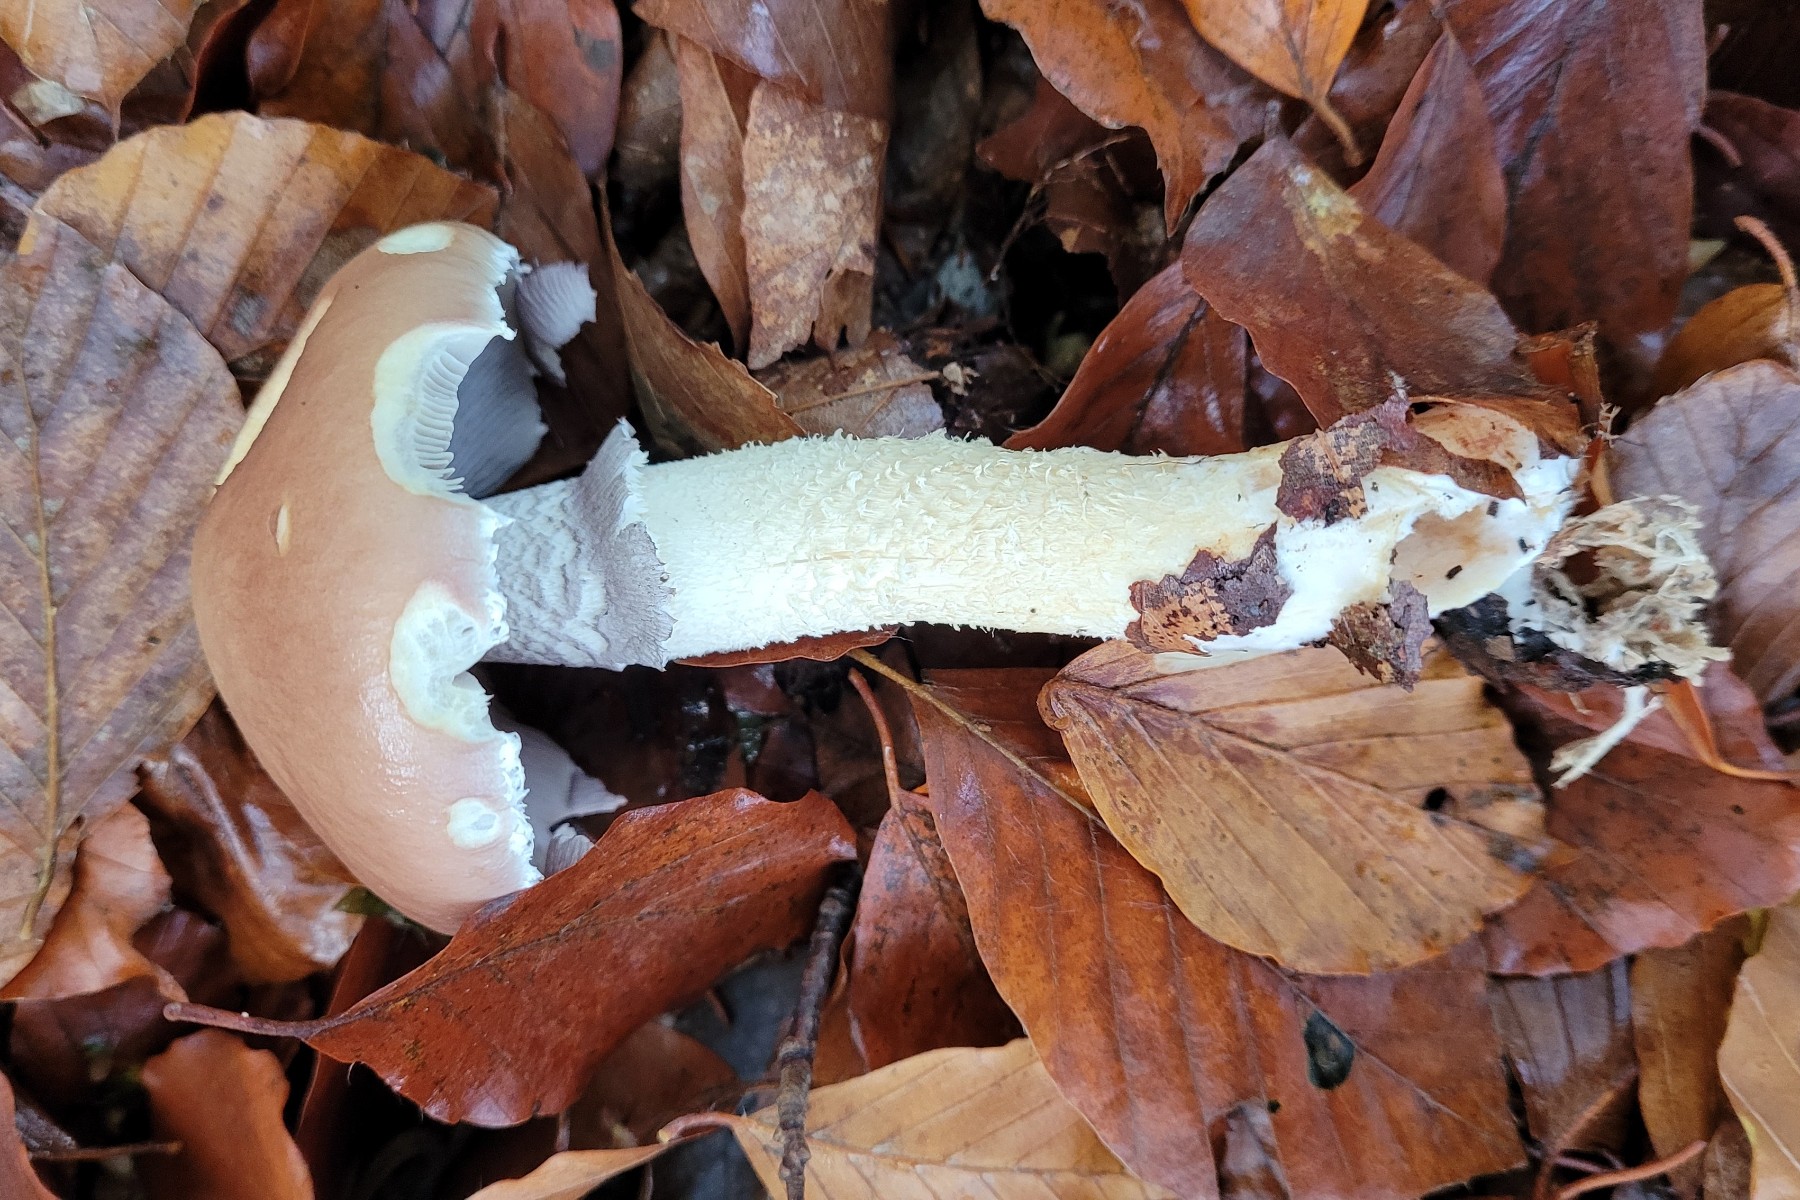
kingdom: Fungi
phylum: Basidiomycota
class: Agaricomycetes
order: Agaricales
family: Strophariaceae
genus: Stropharia
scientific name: Stropharia hornemannii
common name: nordisk bredblad
